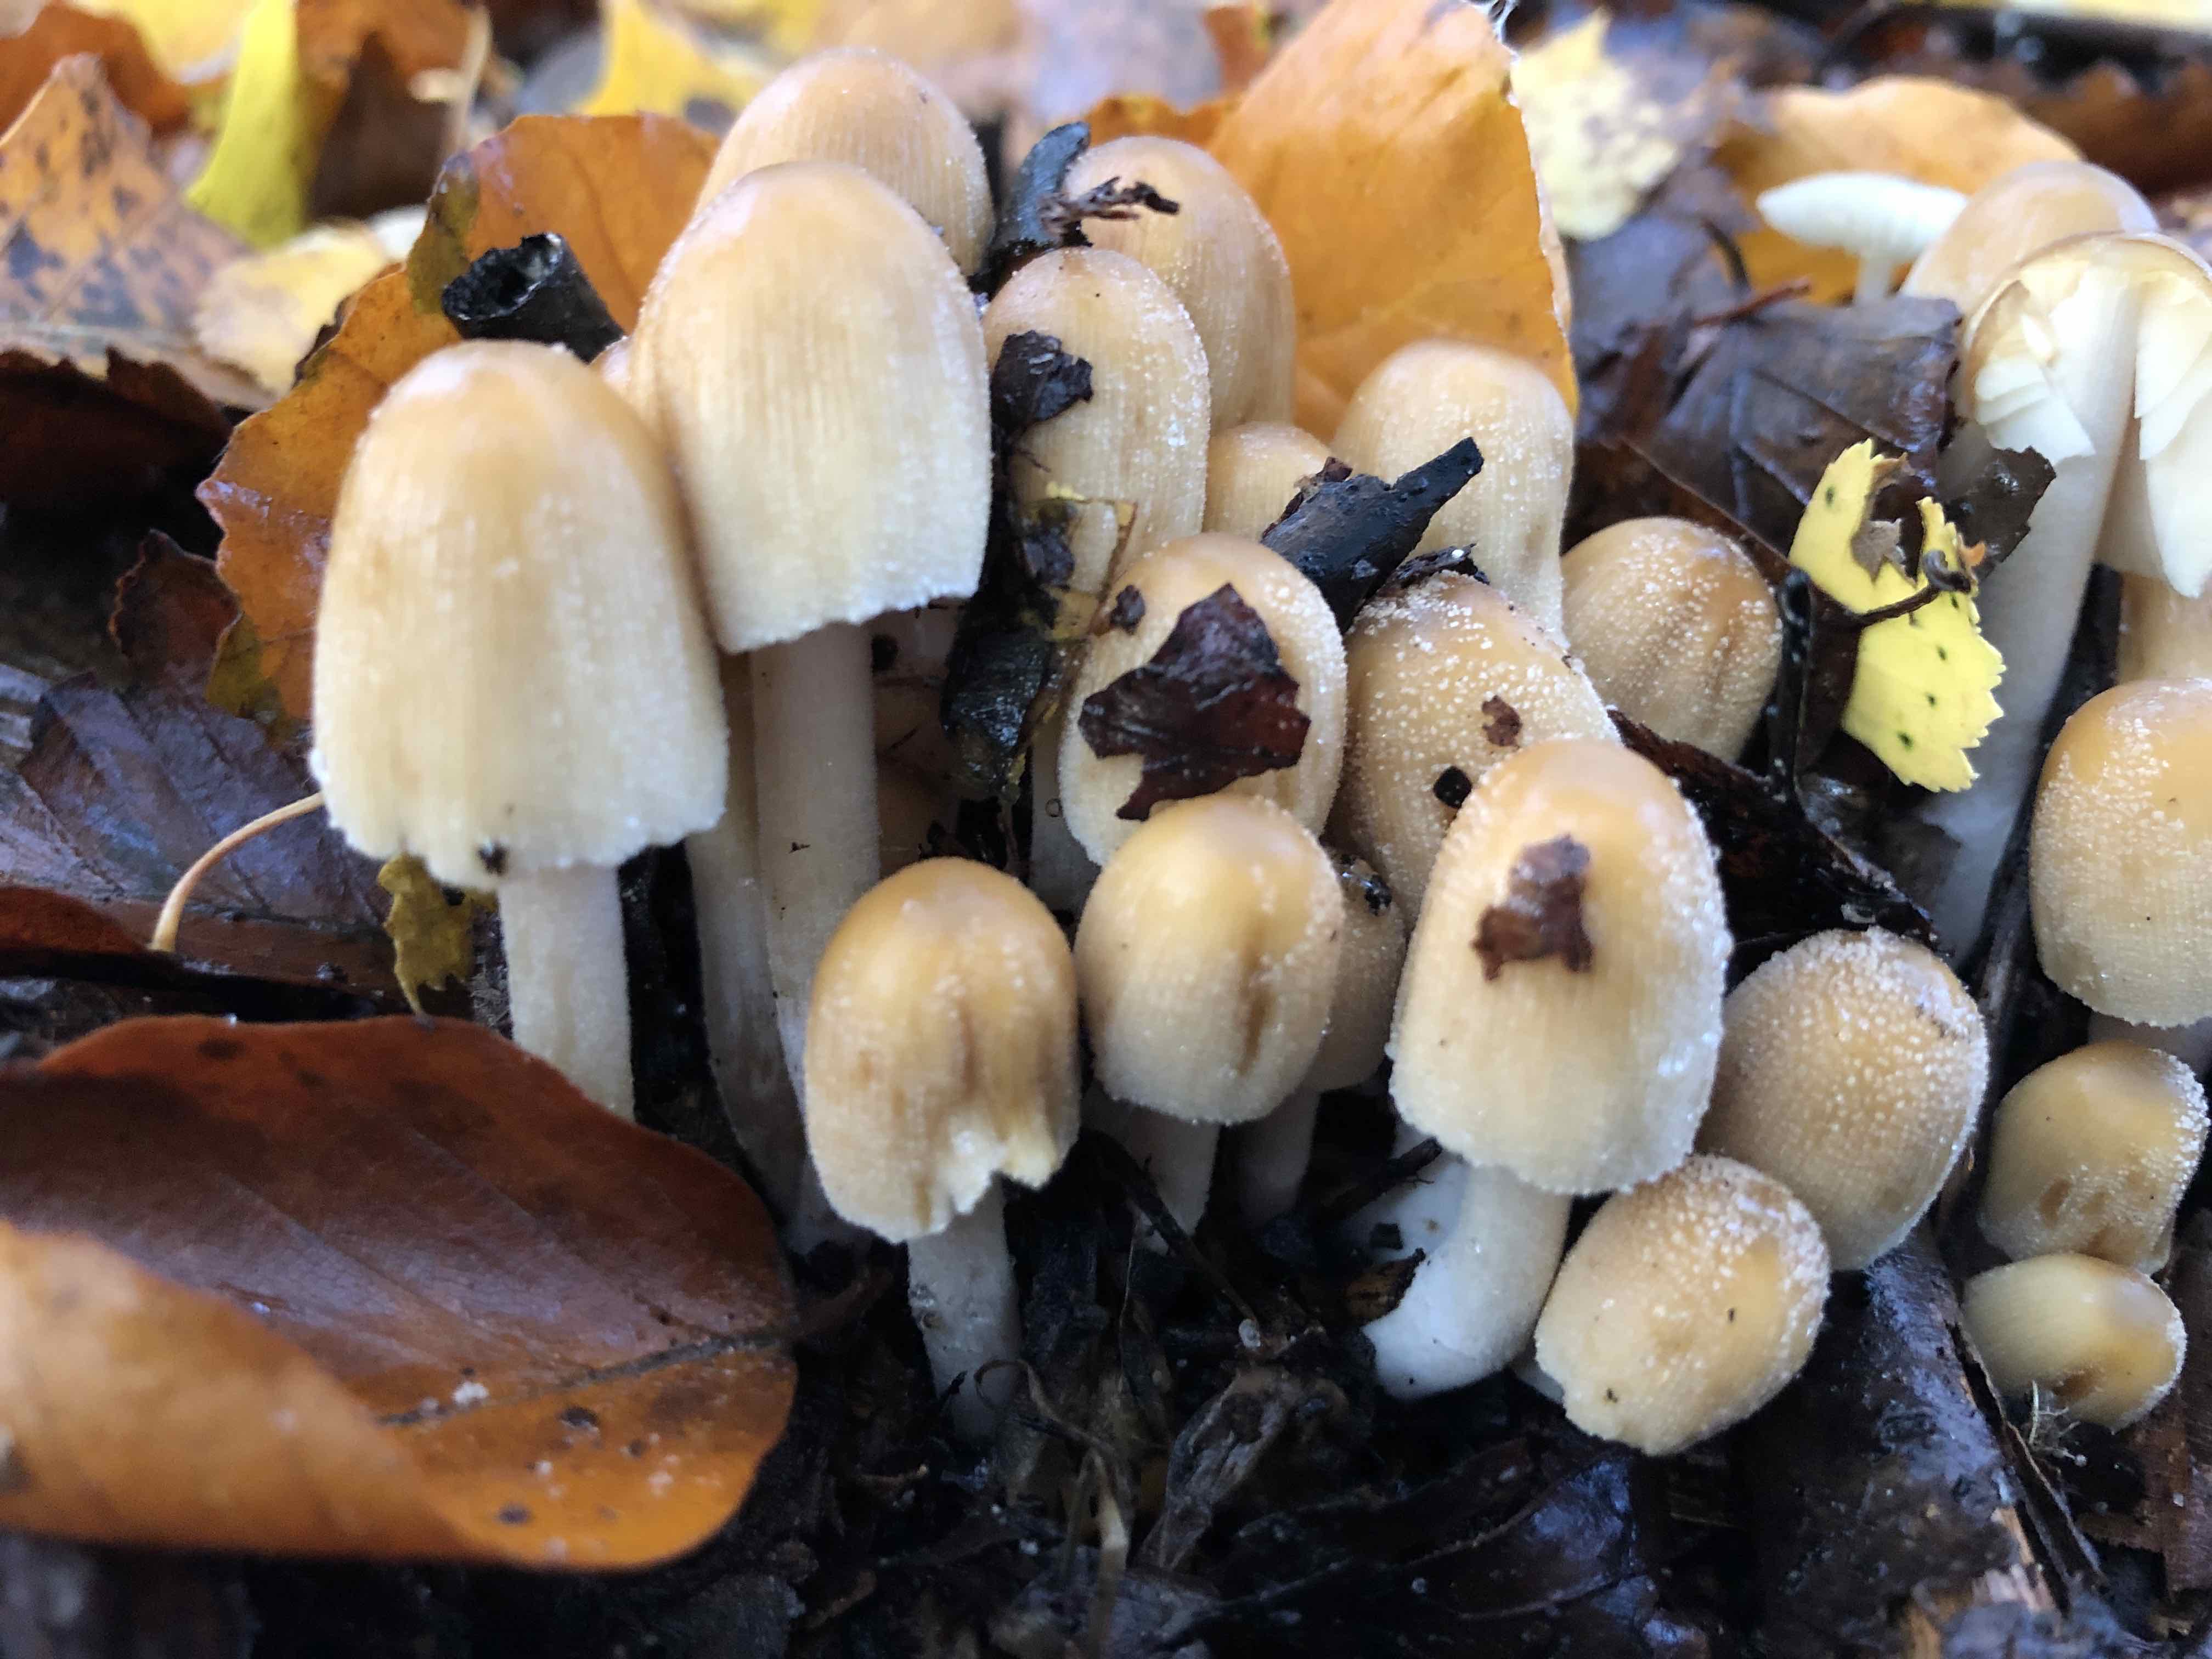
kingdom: Fungi
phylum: Basidiomycota
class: Agaricomycetes
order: Agaricales
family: Psathyrellaceae
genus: Coprinellus
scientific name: Coprinellus micaceus
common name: glimmer-blækhat
